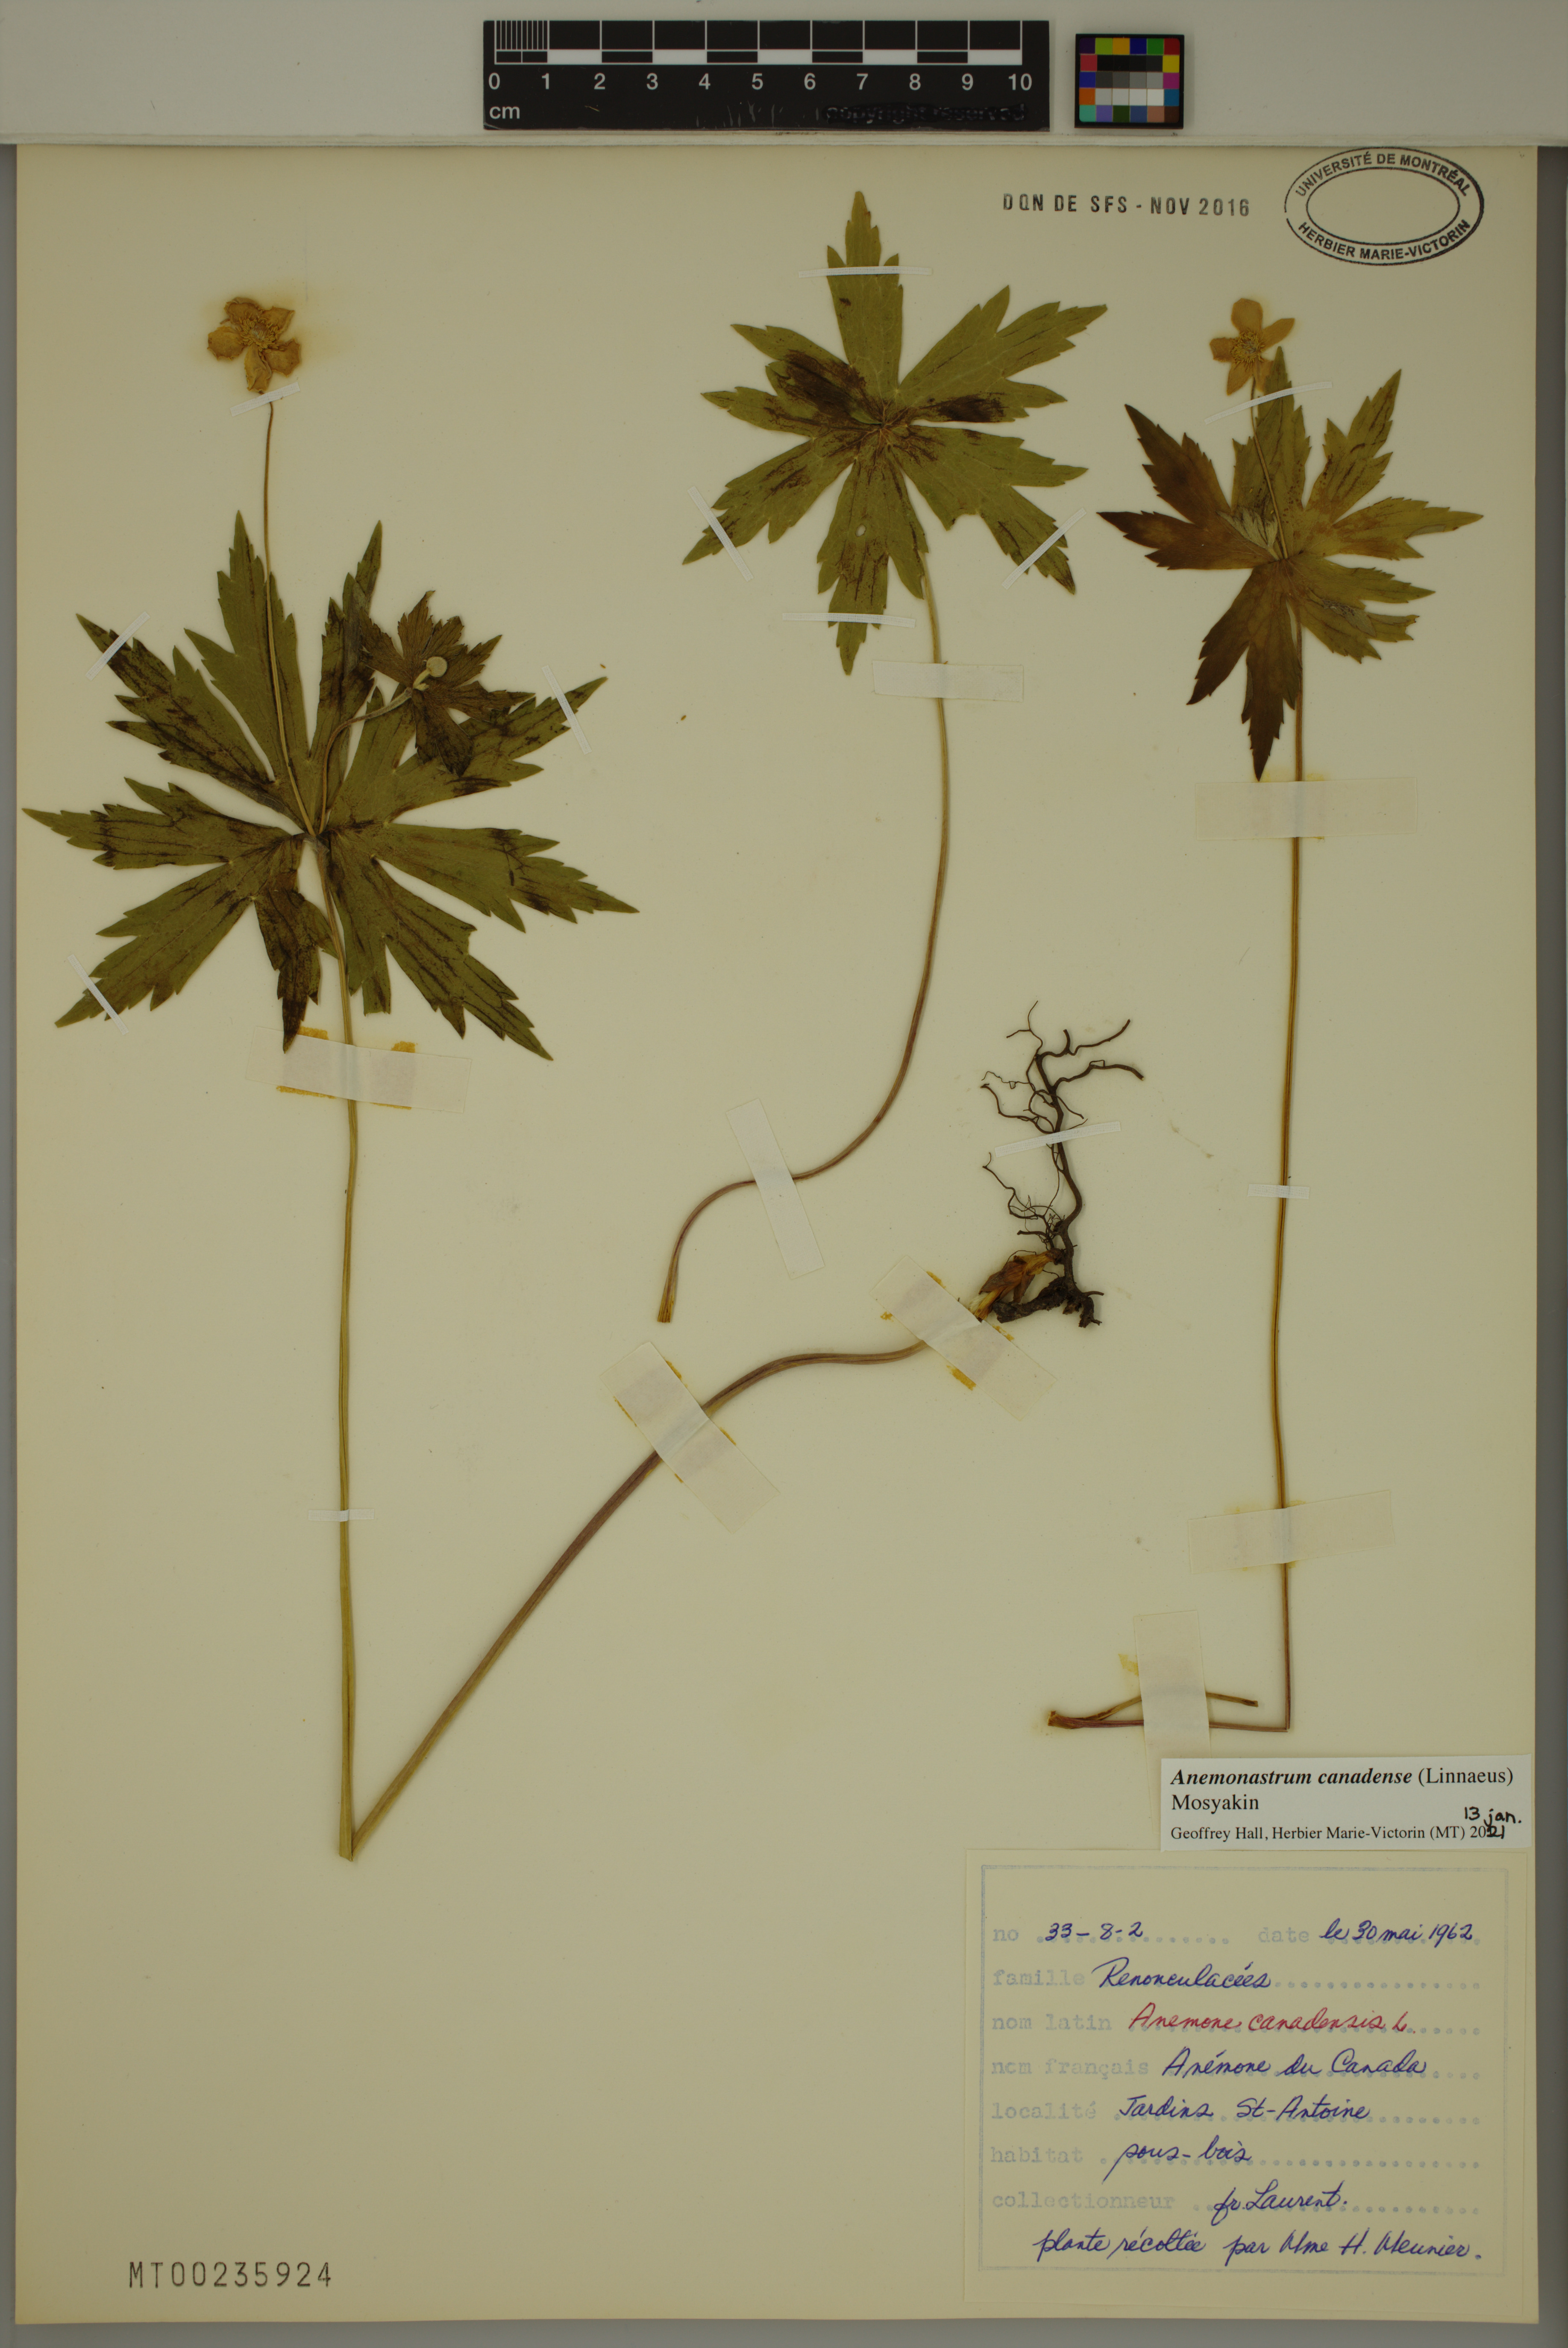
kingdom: Plantae
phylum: Tracheophyta
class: Magnoliopsida
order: Ranunculales
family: Ranunculaceae
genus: Anemonastrum
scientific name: Anemonastrum canadense
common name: Canada anemone
